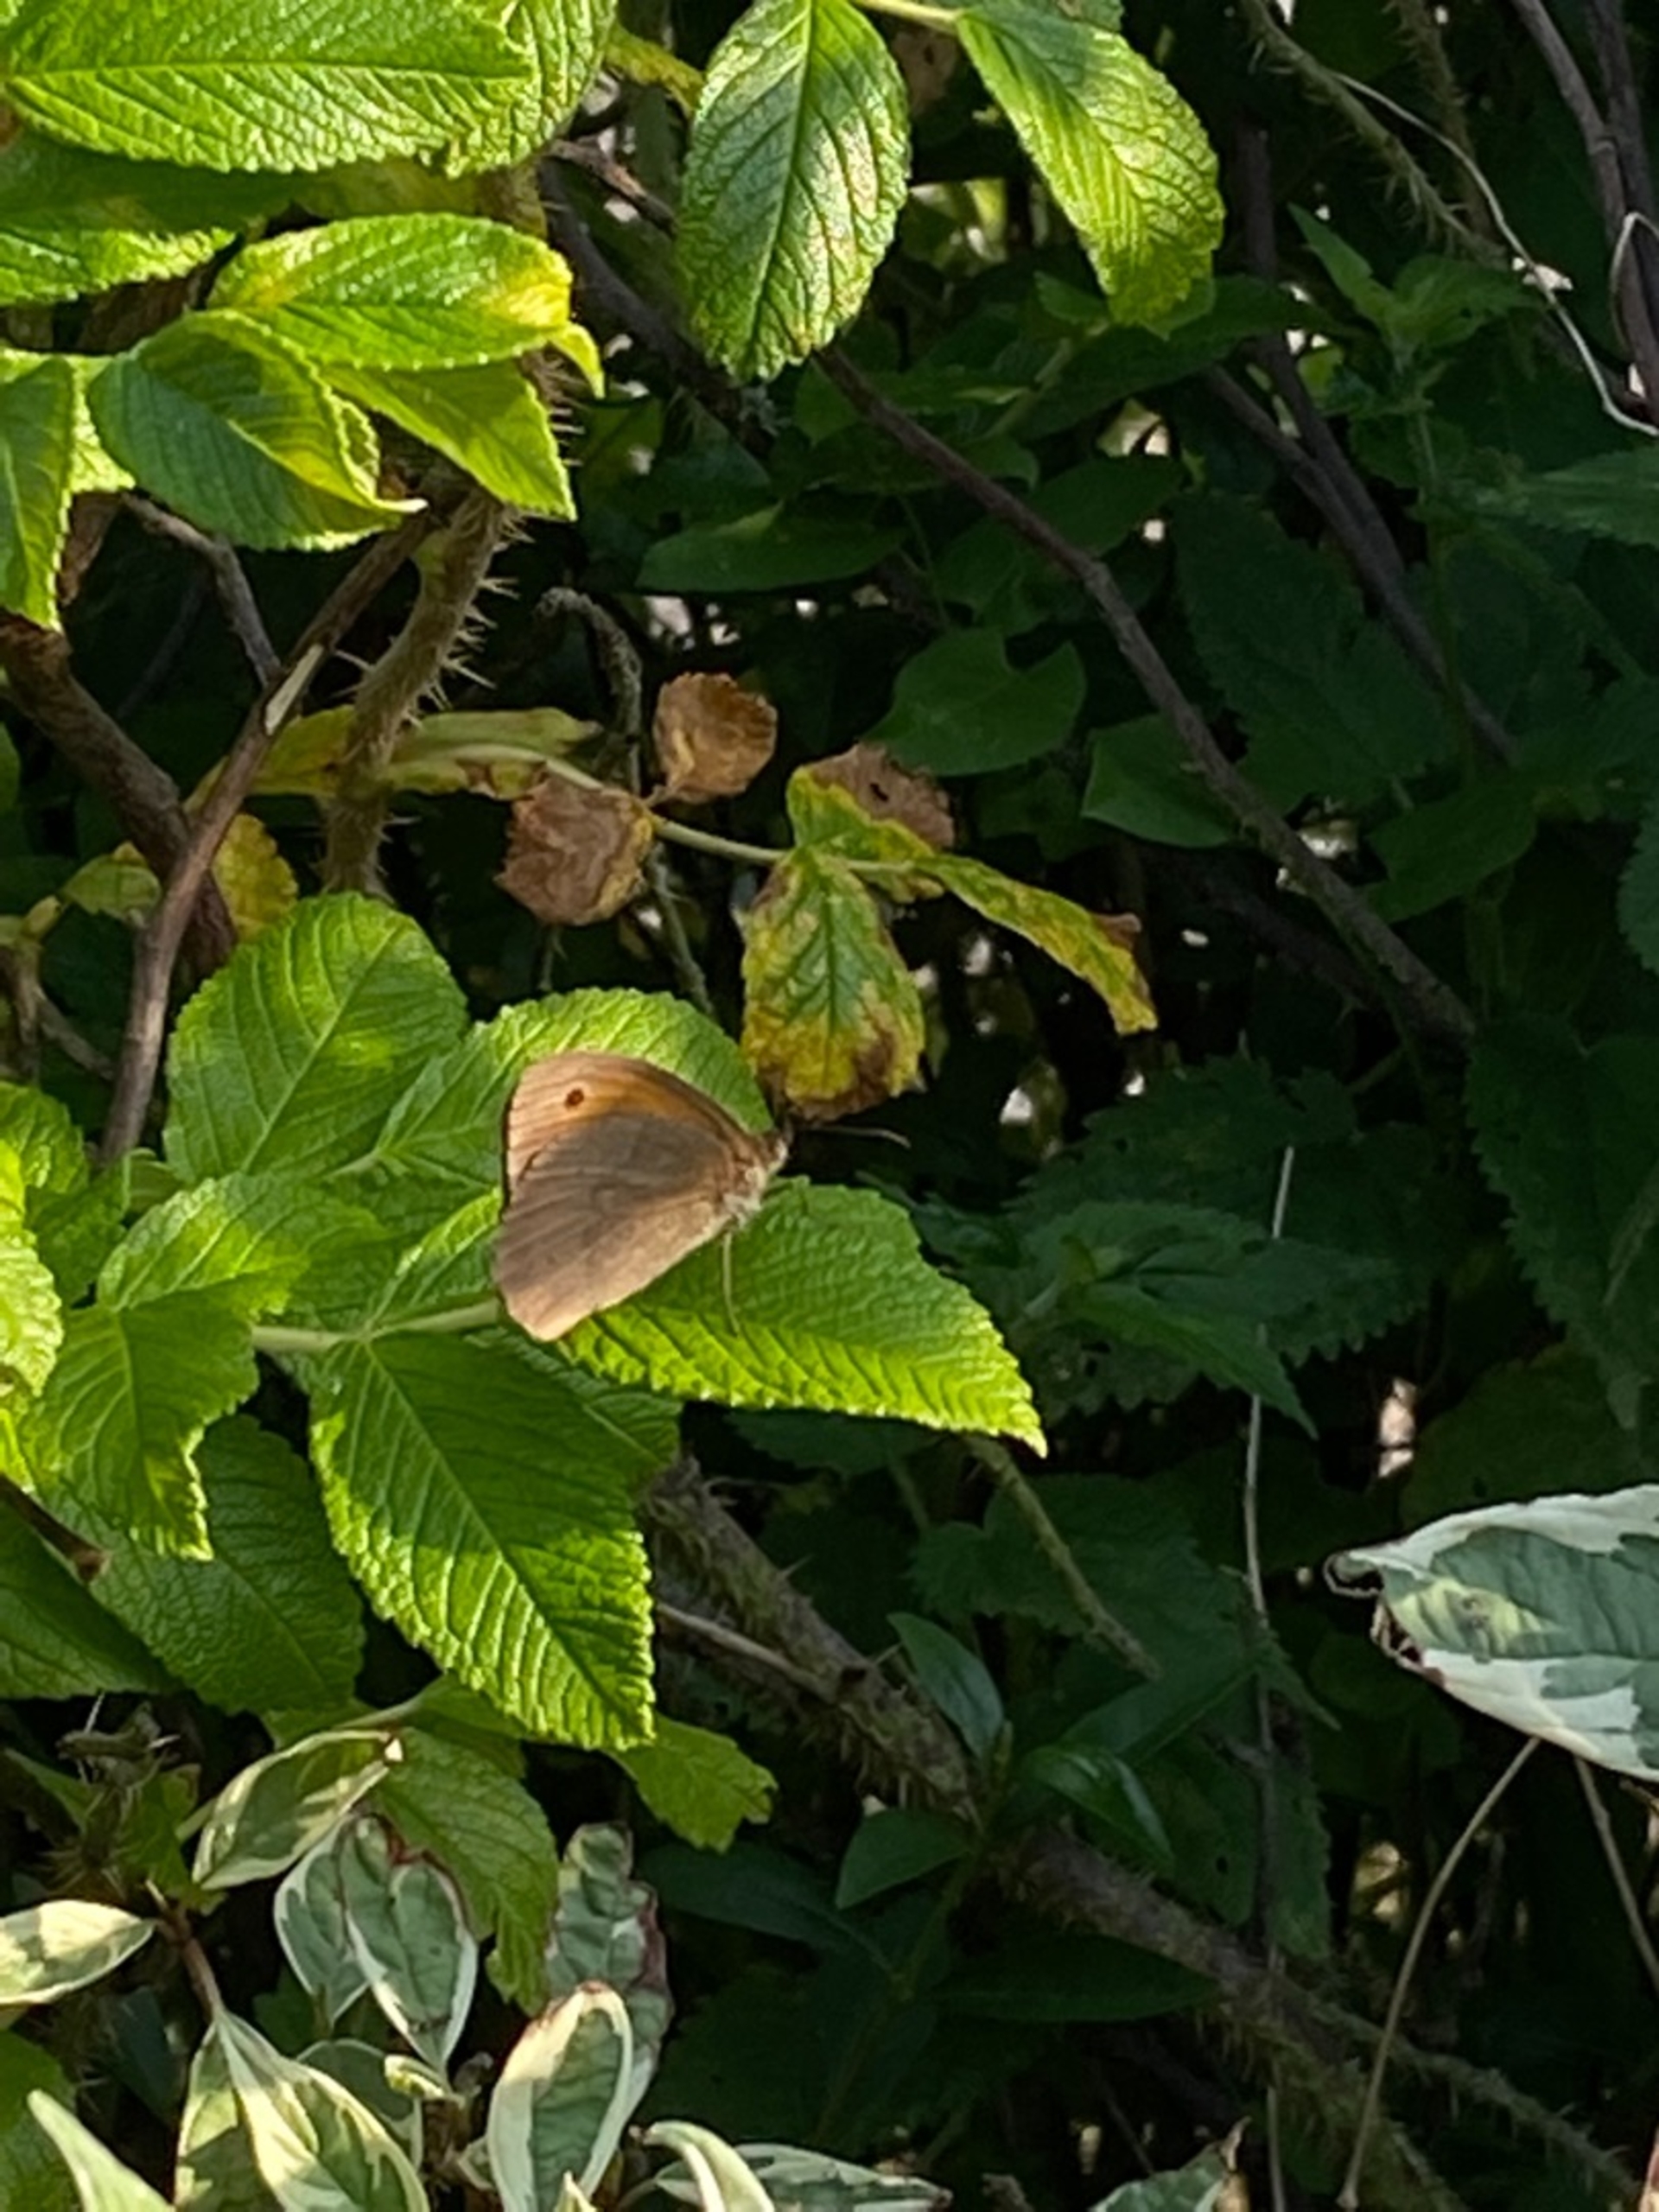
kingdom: Animalia
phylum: Arthropoda
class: Insecta
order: Lepidoptera
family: Nymphalidae
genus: Maniola
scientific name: Maniola jurtina
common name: Græsrandøje
